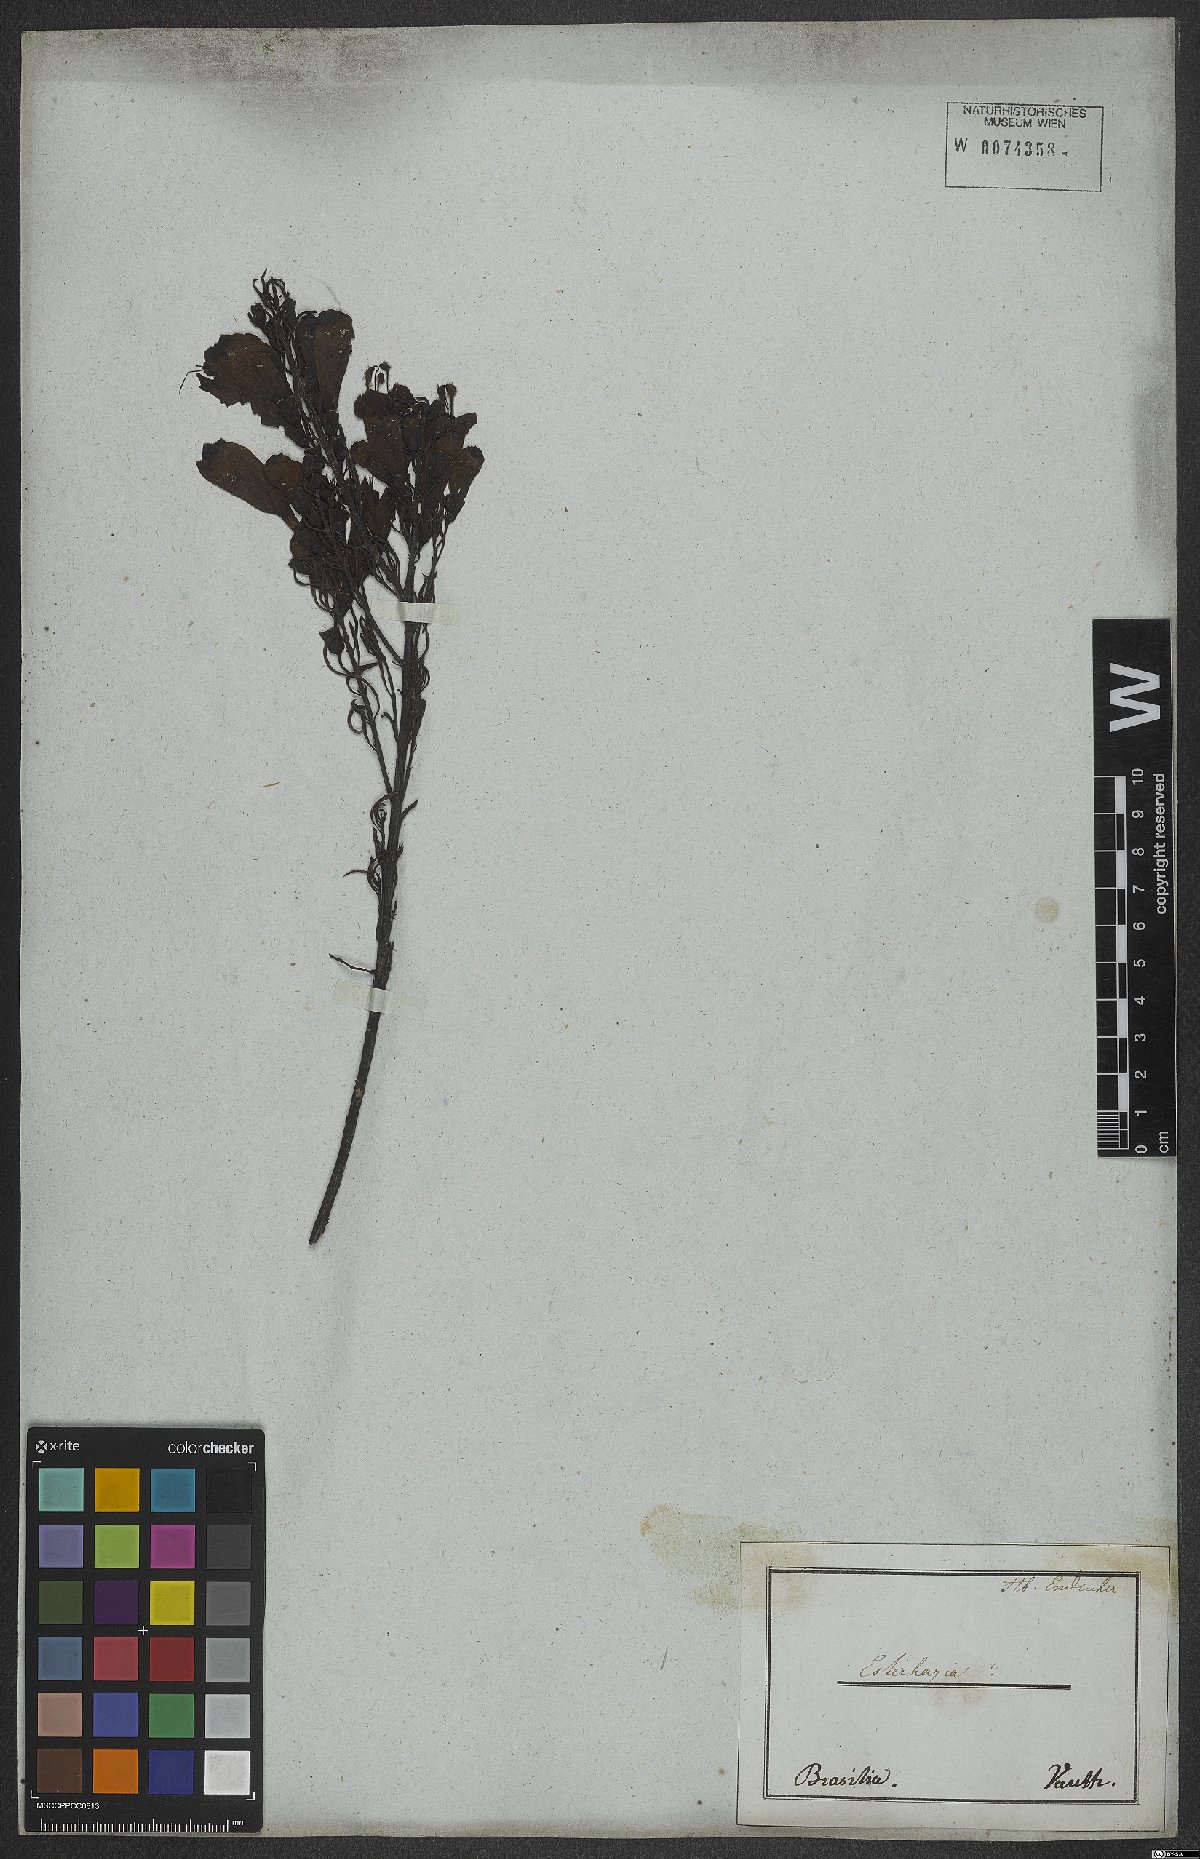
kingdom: Plantae
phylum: Tracheophyta
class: Magnoliopsida
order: Lamiales
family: Orobanchaceae
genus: Esterhazya
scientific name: Esterhazya splendida
